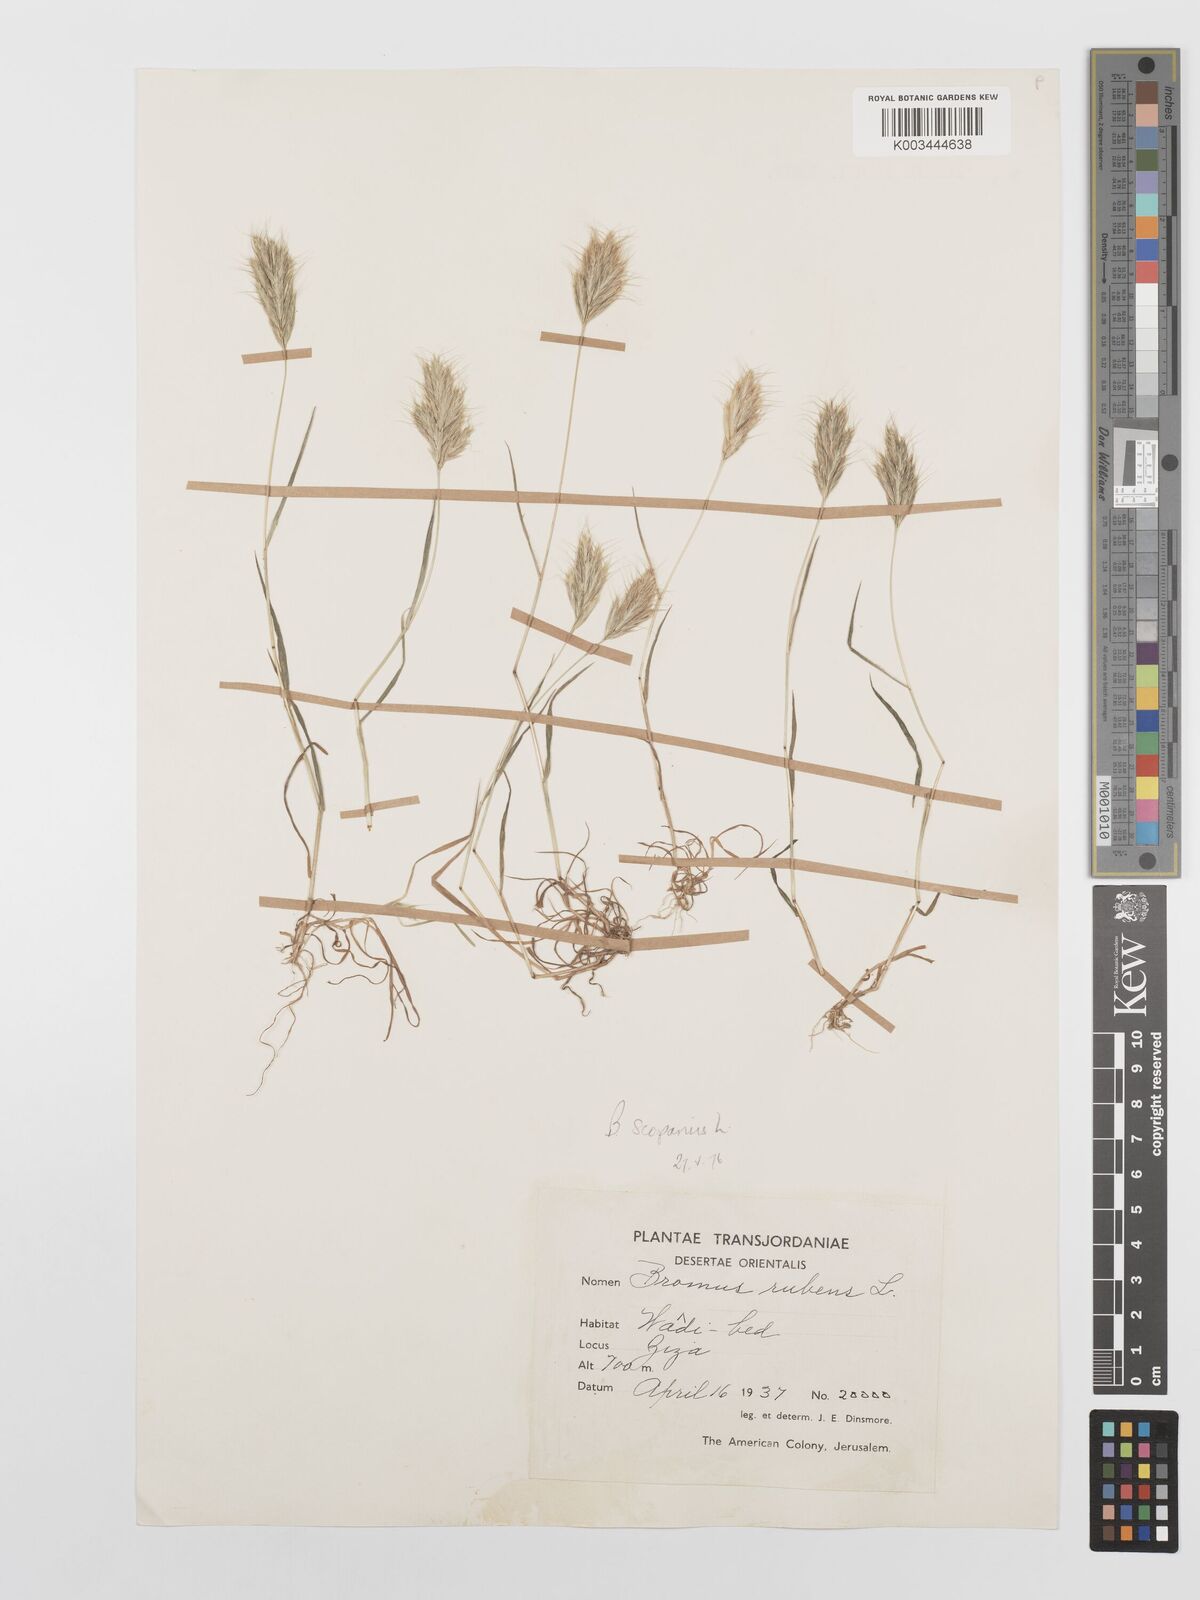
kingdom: Plantae
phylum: Tracheophyta
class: Liliopsida
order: Poales
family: Poaceae
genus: Bromus
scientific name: Bromus scoparius
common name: Broom brome
